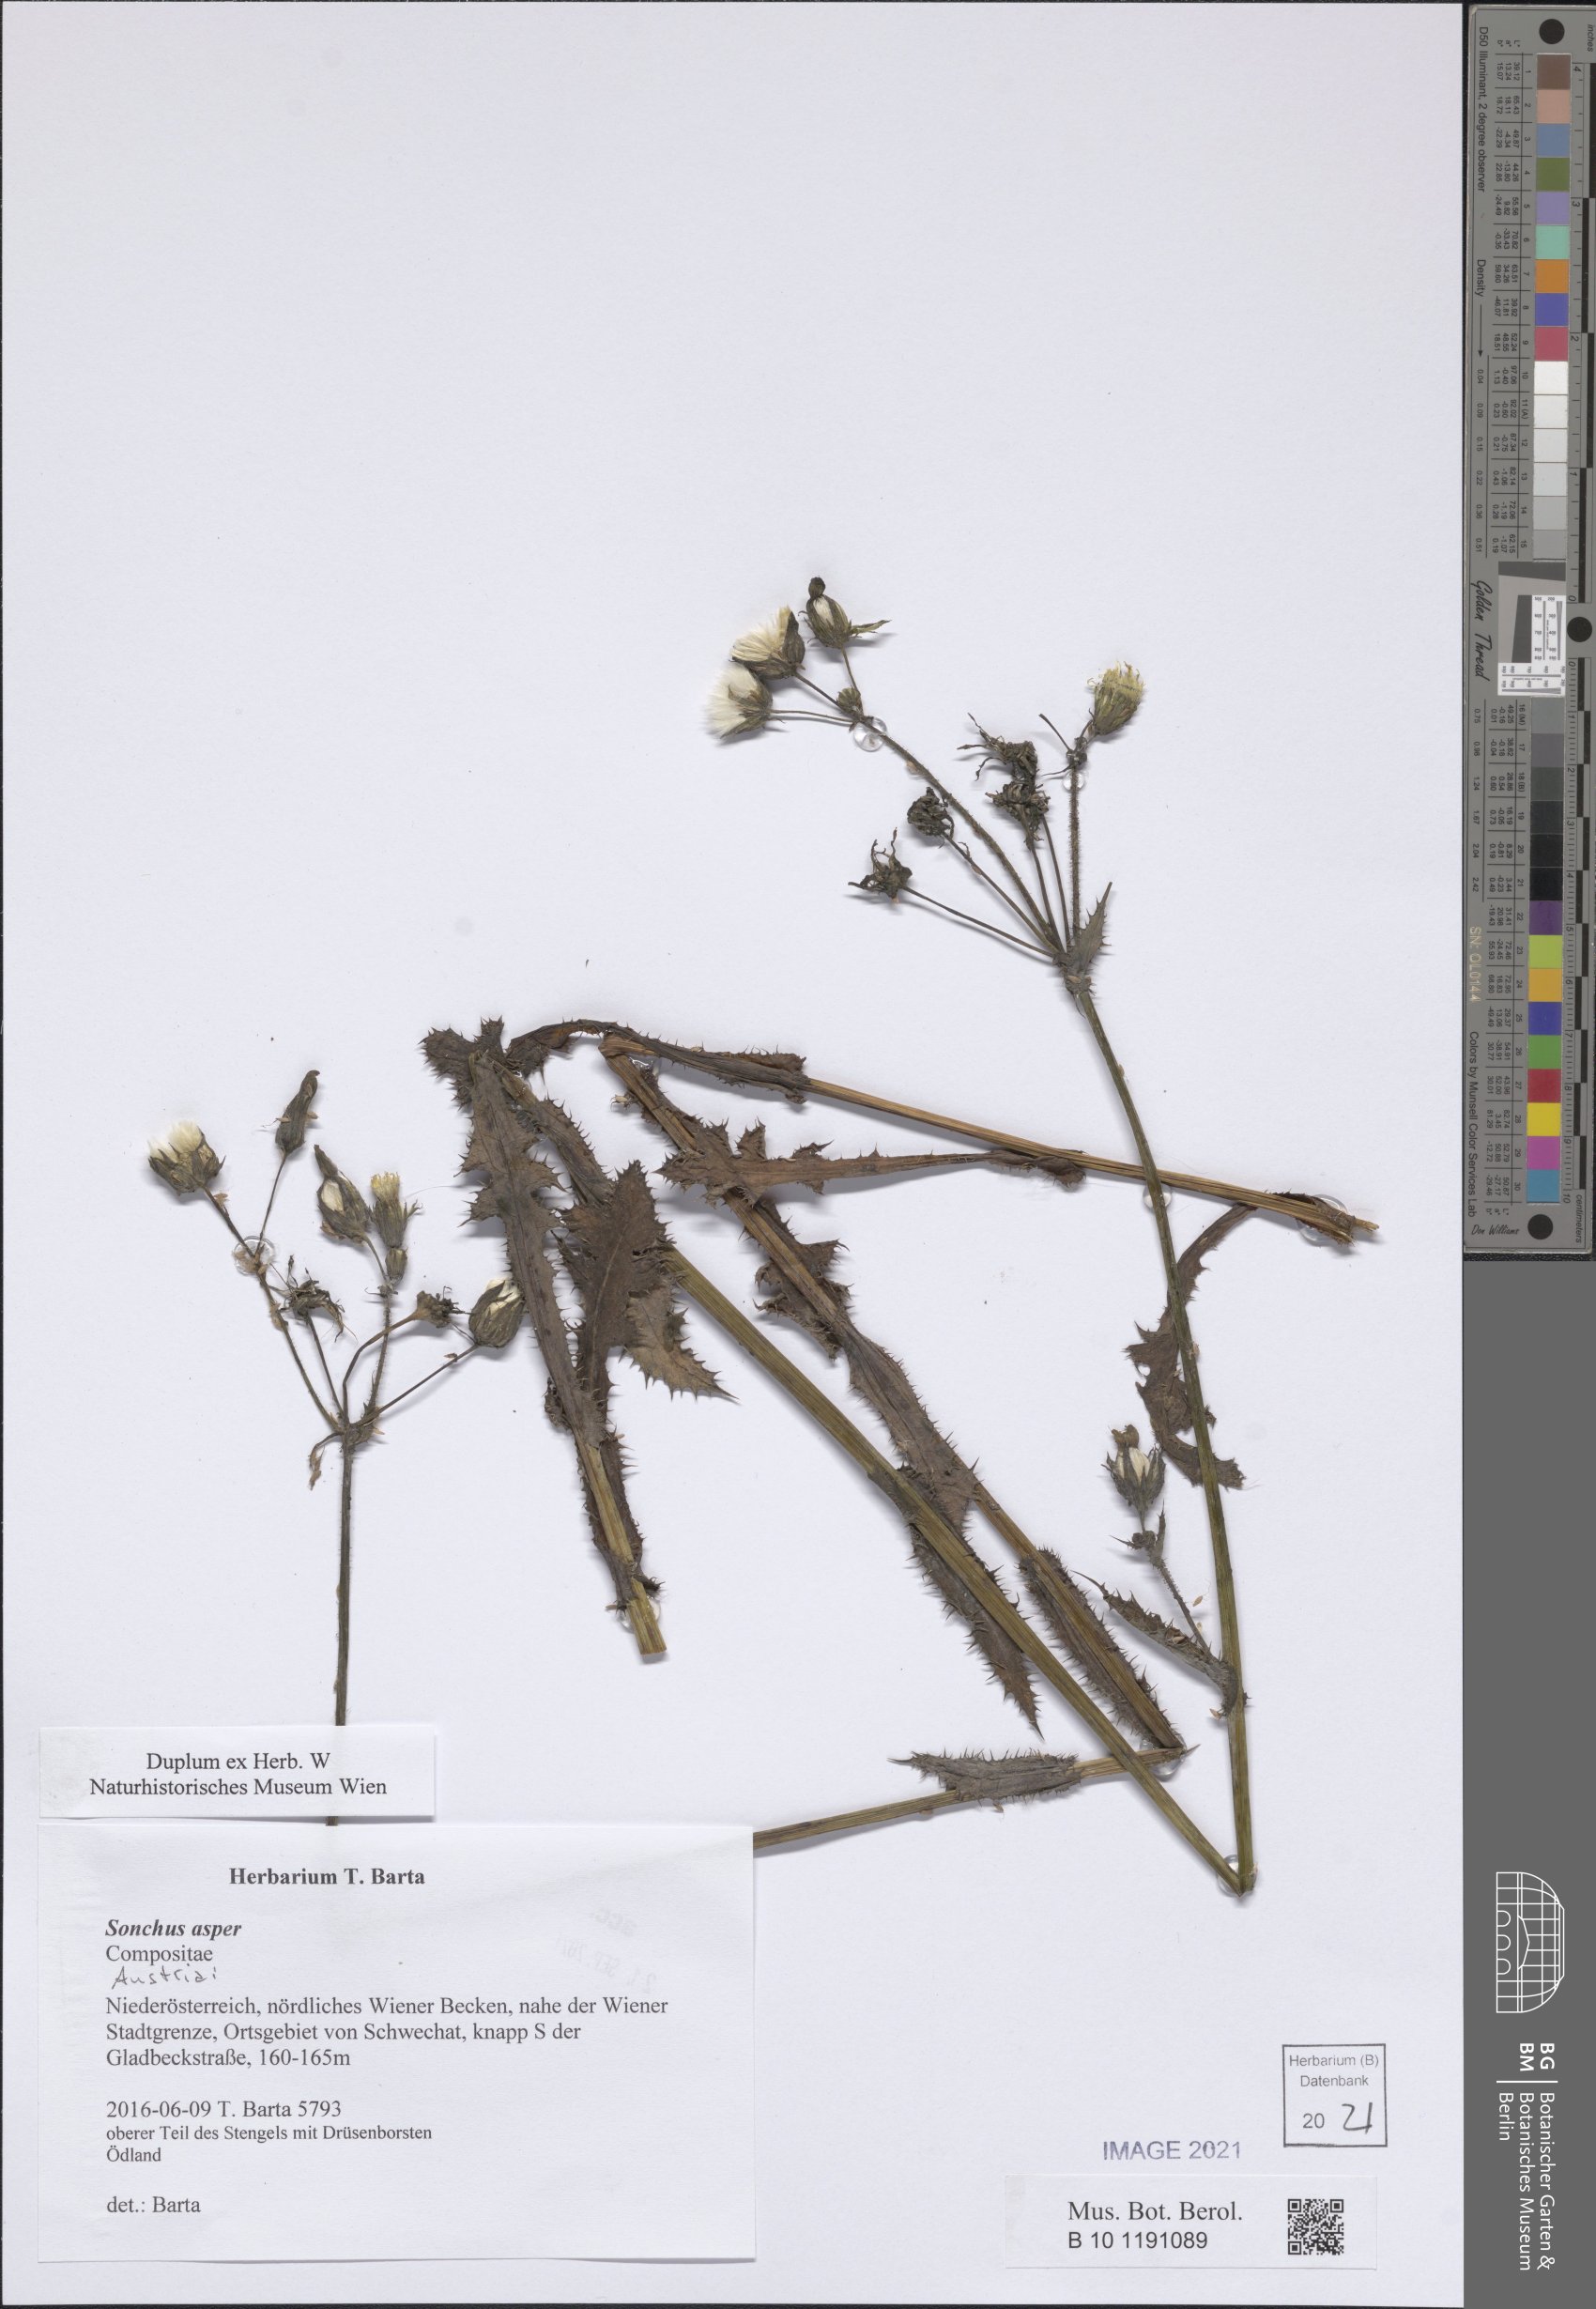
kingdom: Plantae
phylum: Tracheophyta
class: Magnoliopsida
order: Asterales
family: Asteraceae
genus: Sonchus
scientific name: Sonchus asper
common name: Prickly sow-thistle
